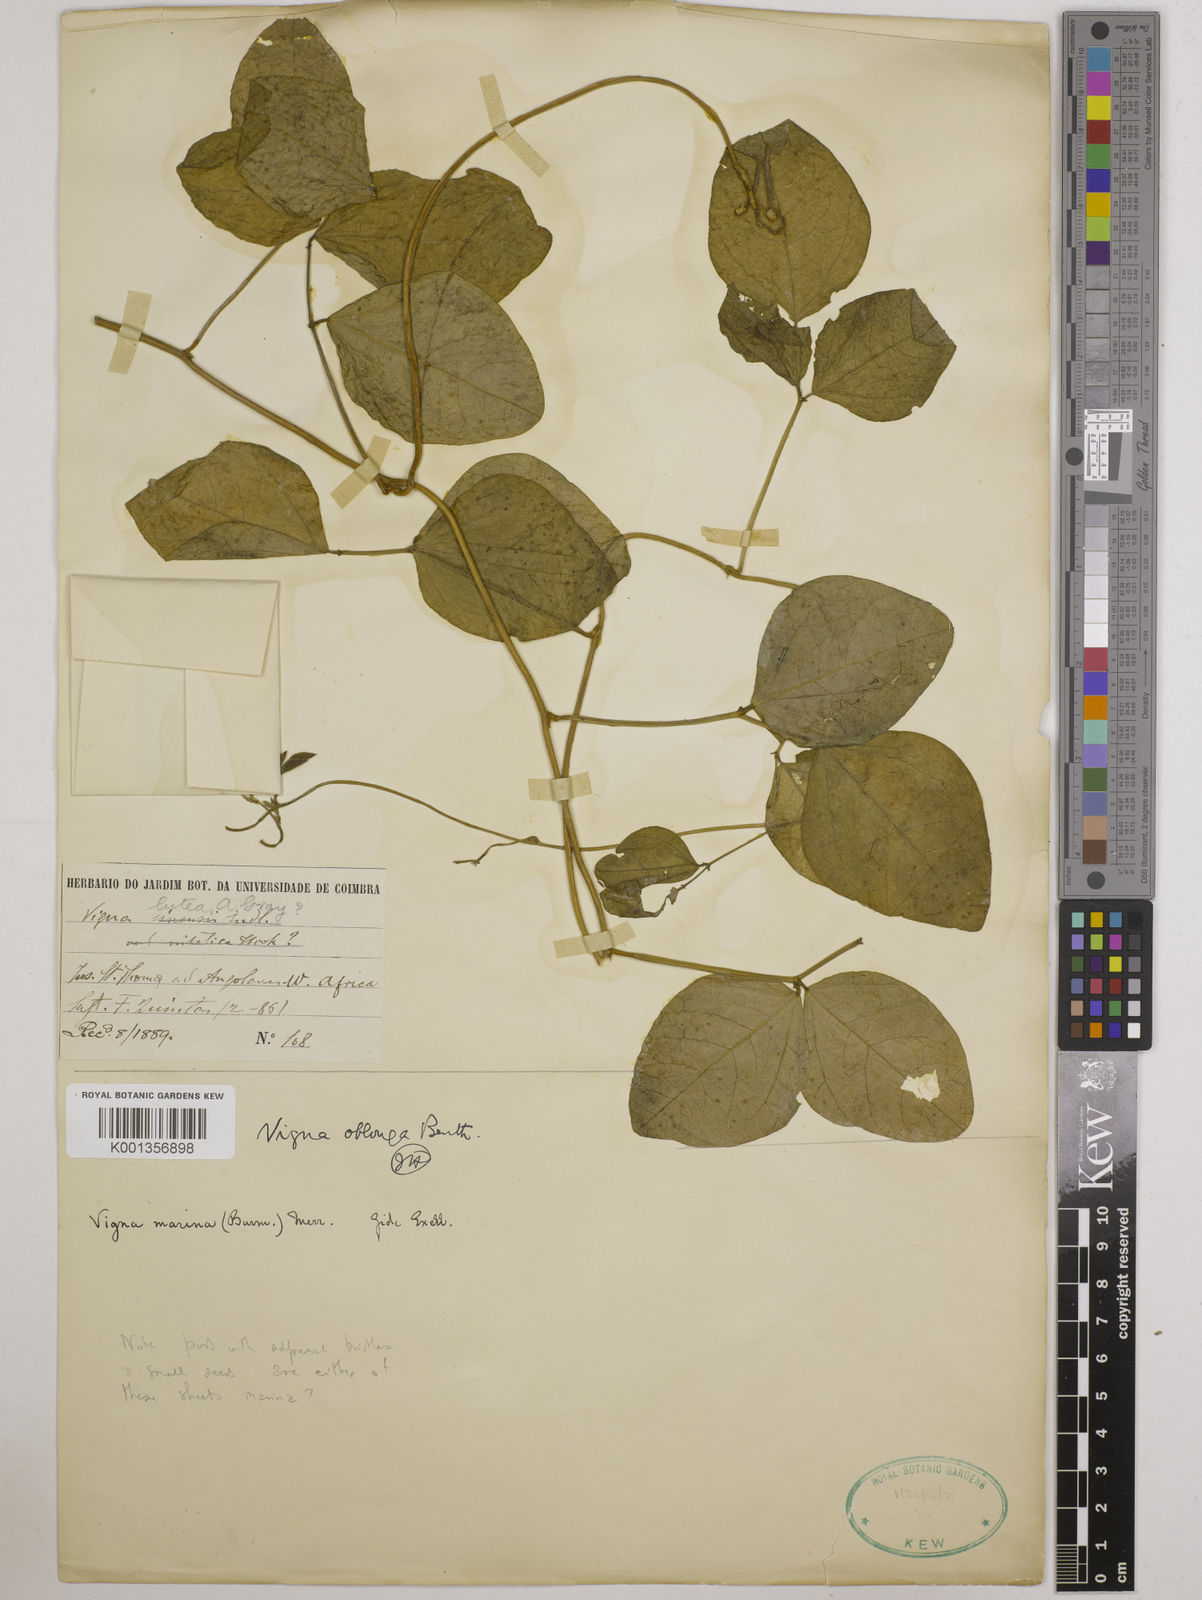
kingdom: Plantae
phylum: Tracheophyta
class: Magnoliopsida
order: Fabales
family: Fabaceae
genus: Vigna
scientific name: Vigna marina
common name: Dune-bean
